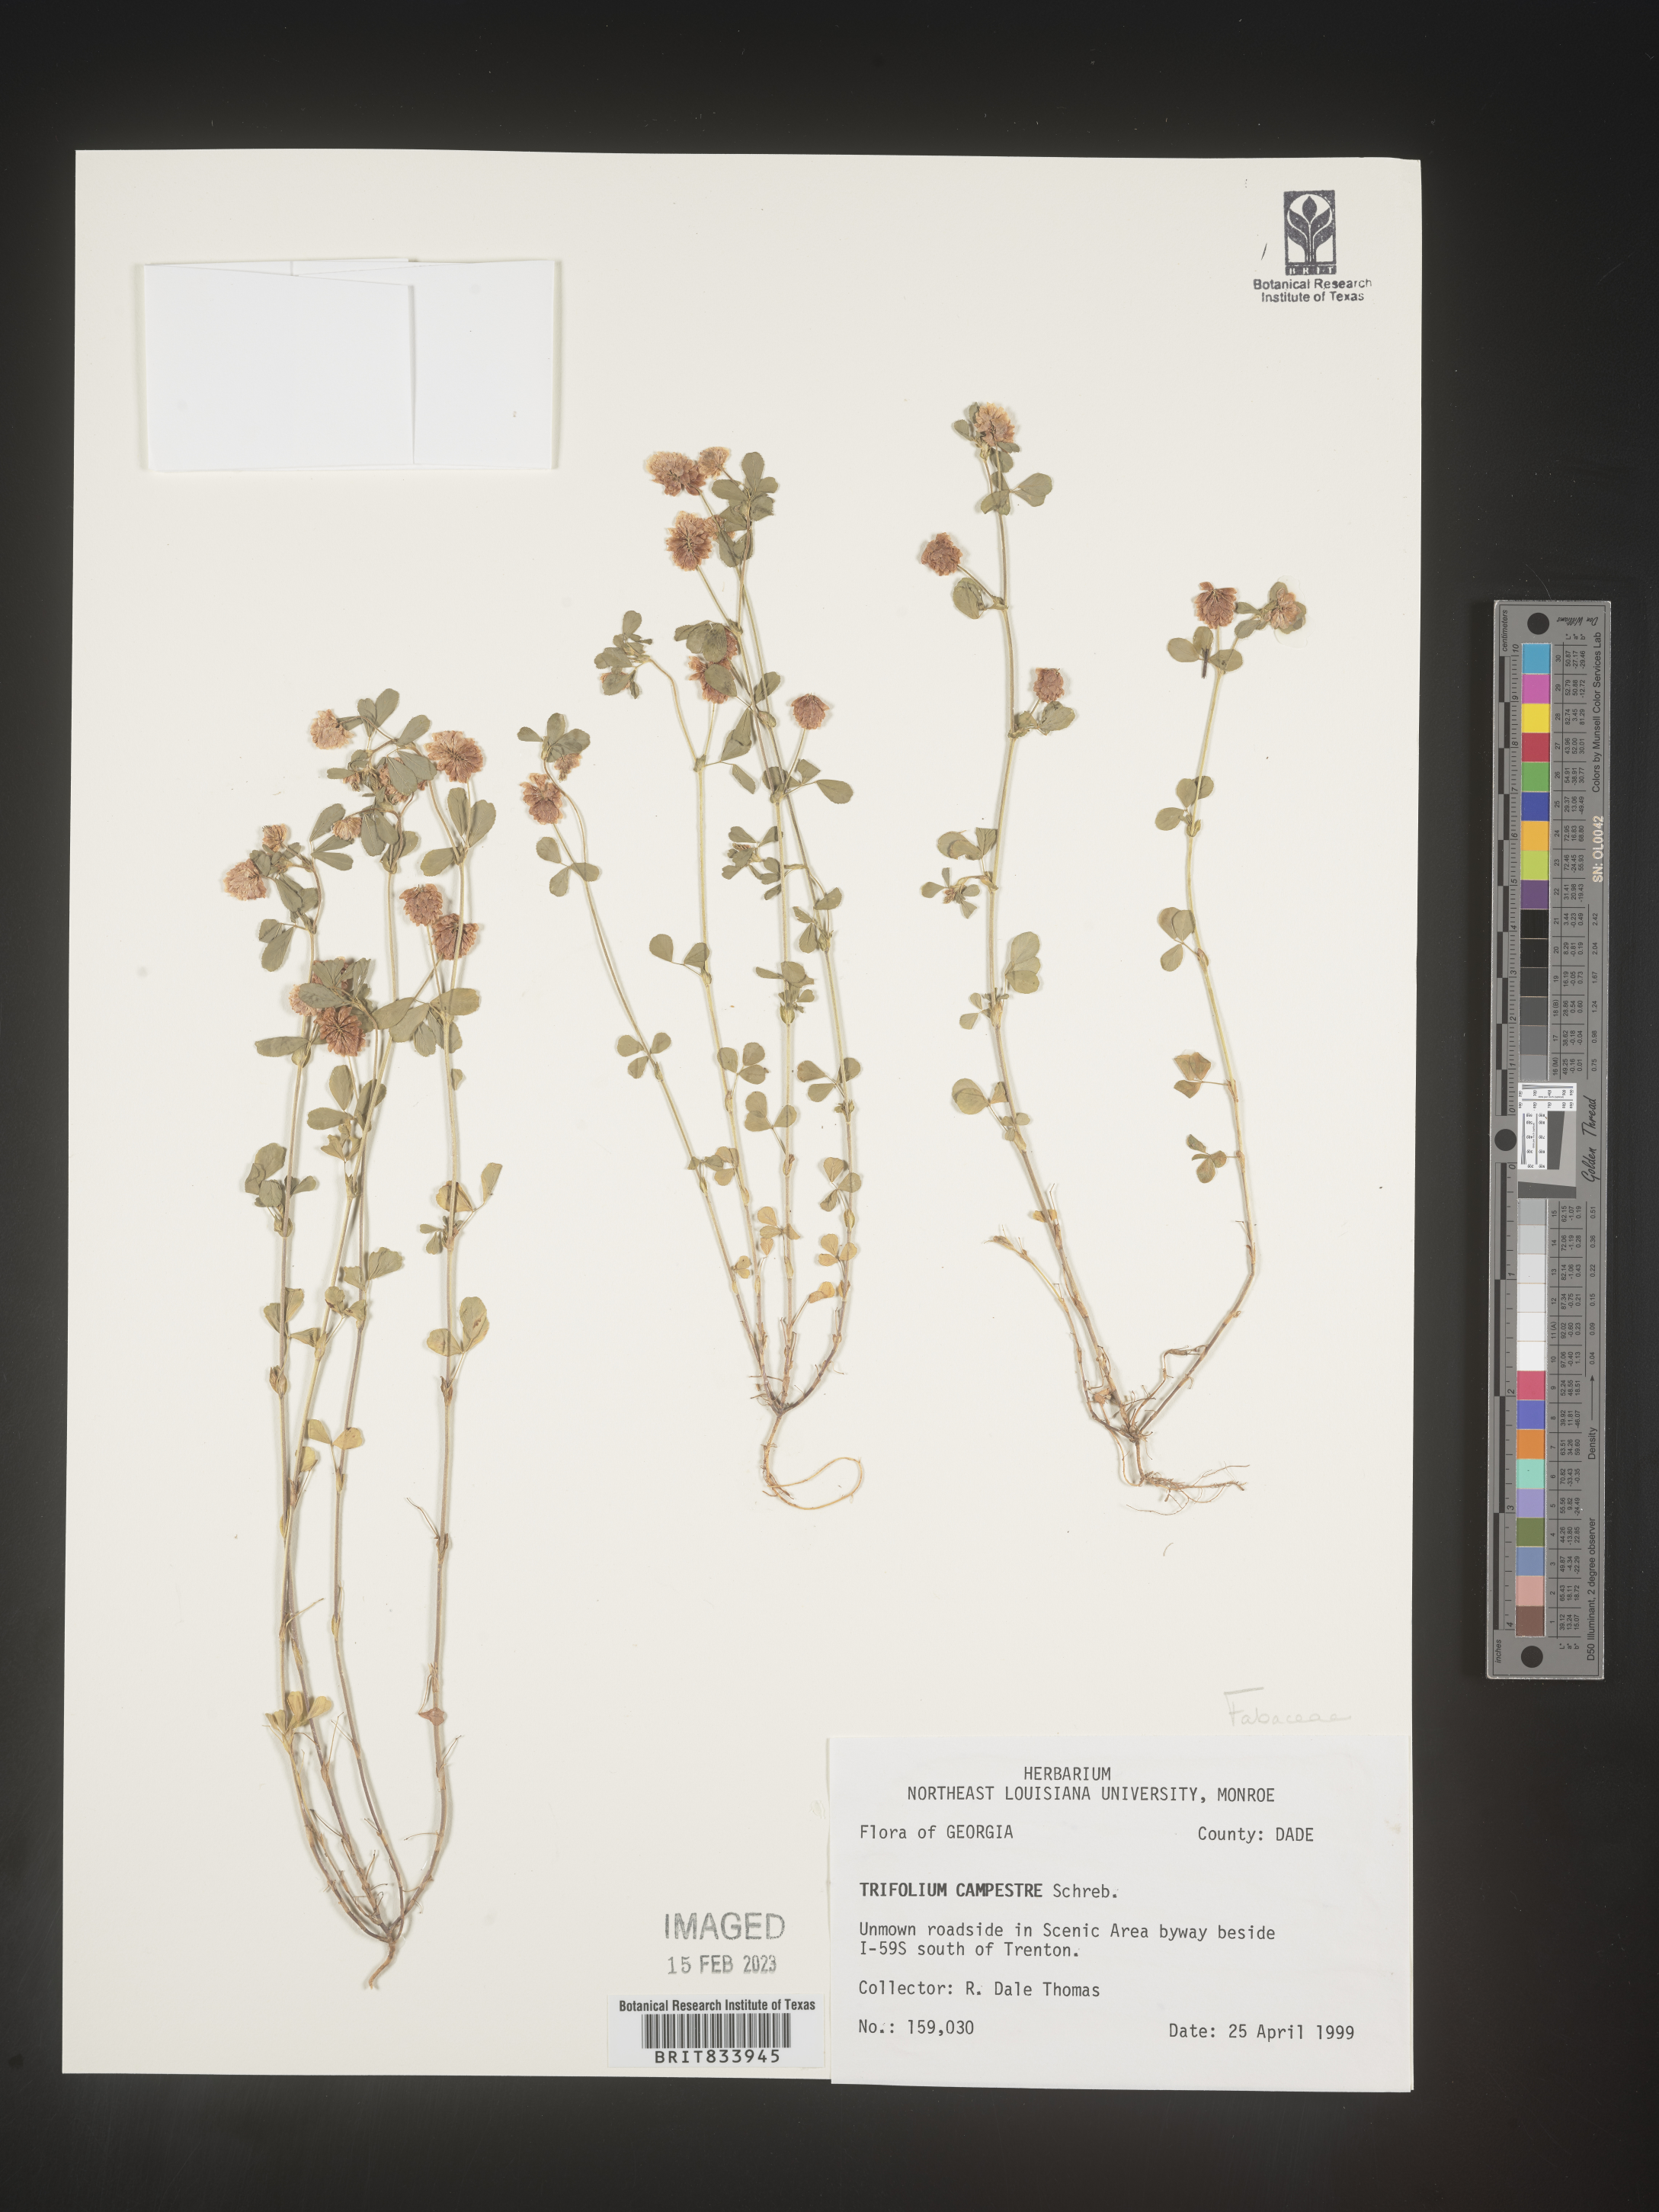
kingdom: Plantae
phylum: Tracheophyta
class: Magnoliopsida
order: Fabales
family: Fabaceae
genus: Trifolium
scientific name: Trifolium campestre
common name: Field clover
